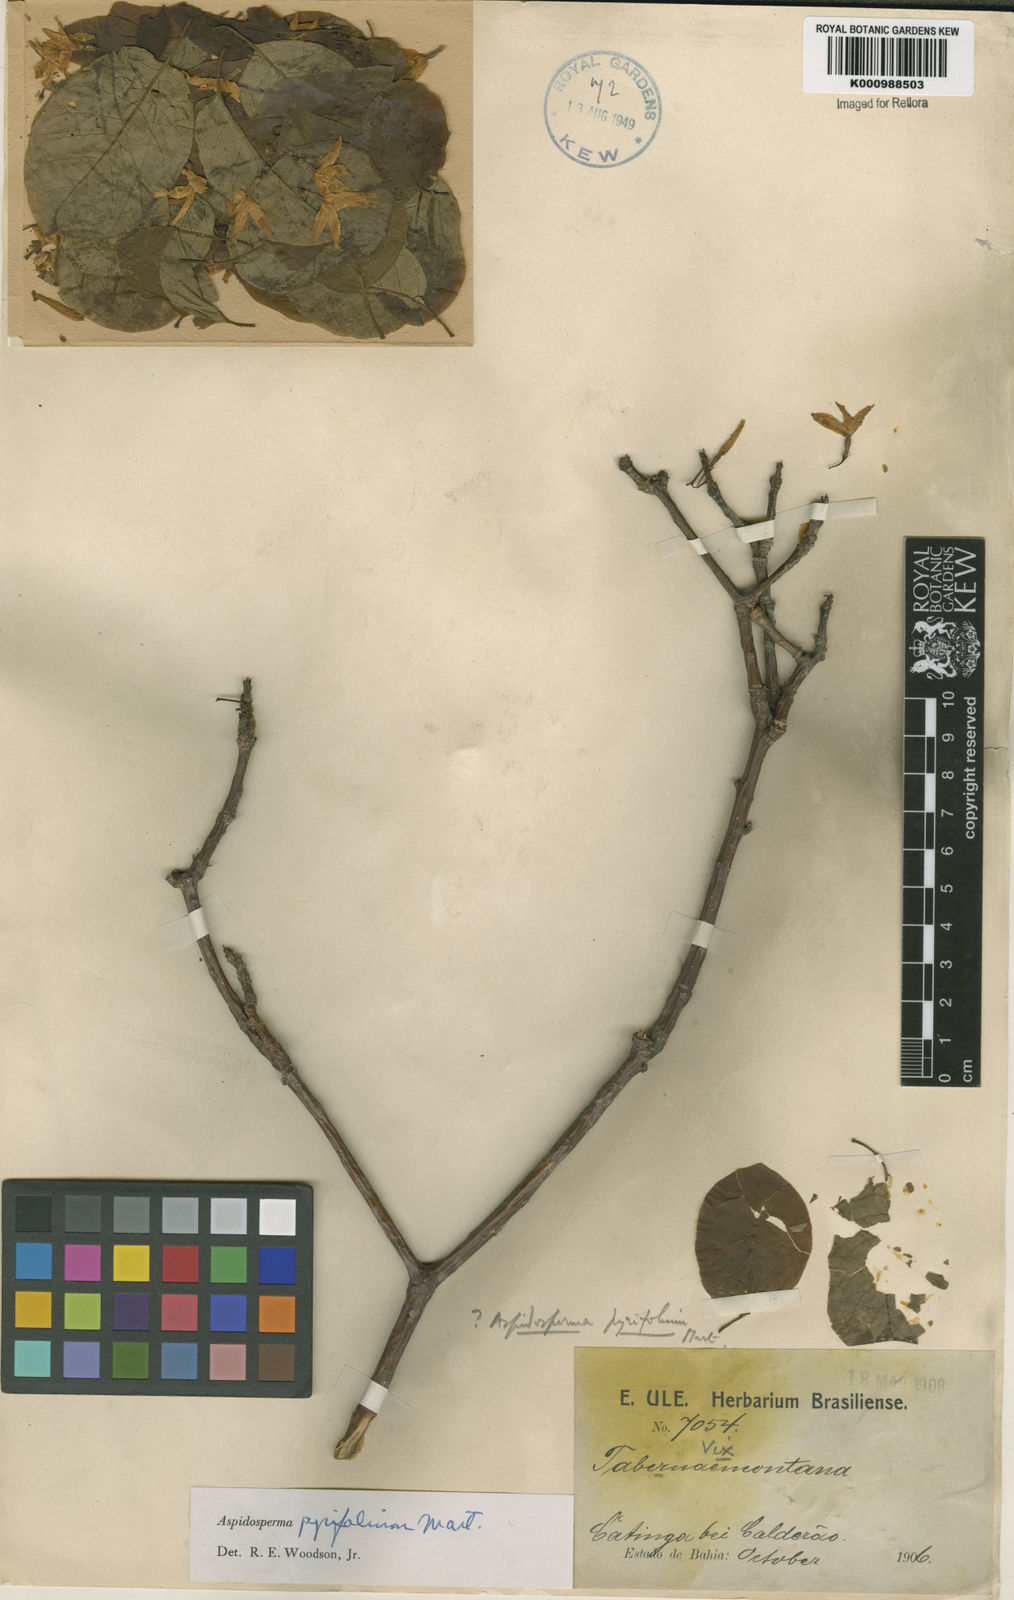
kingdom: Plantae
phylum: Tracheophyta
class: Magnoliopsida
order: Gentianales
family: Apocynaceae
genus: Aspidosperma
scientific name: Aspidosperma pyrifolium
